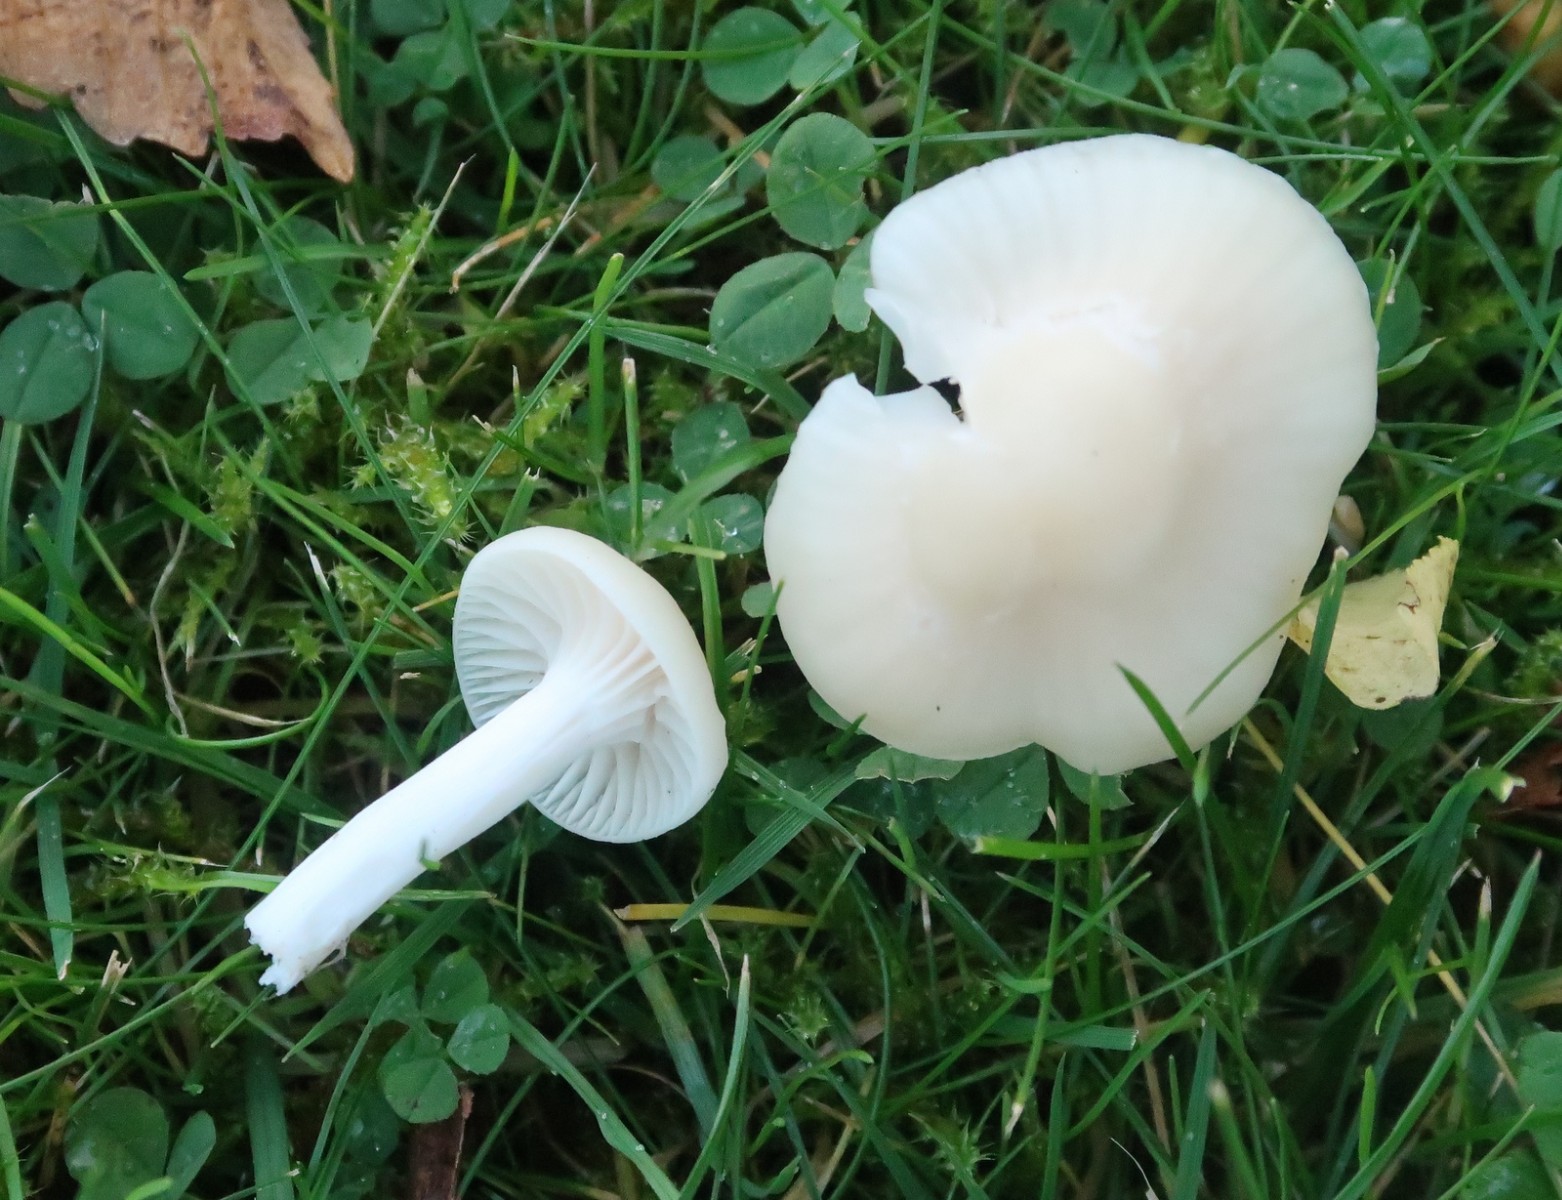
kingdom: Fungi
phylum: Basidiomycota
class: Agaricomycetes
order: Agaricales
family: Hygrophoraceae
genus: Cuphophyllus
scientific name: Cuphophyllus virgineus
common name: snehvid vokshat
